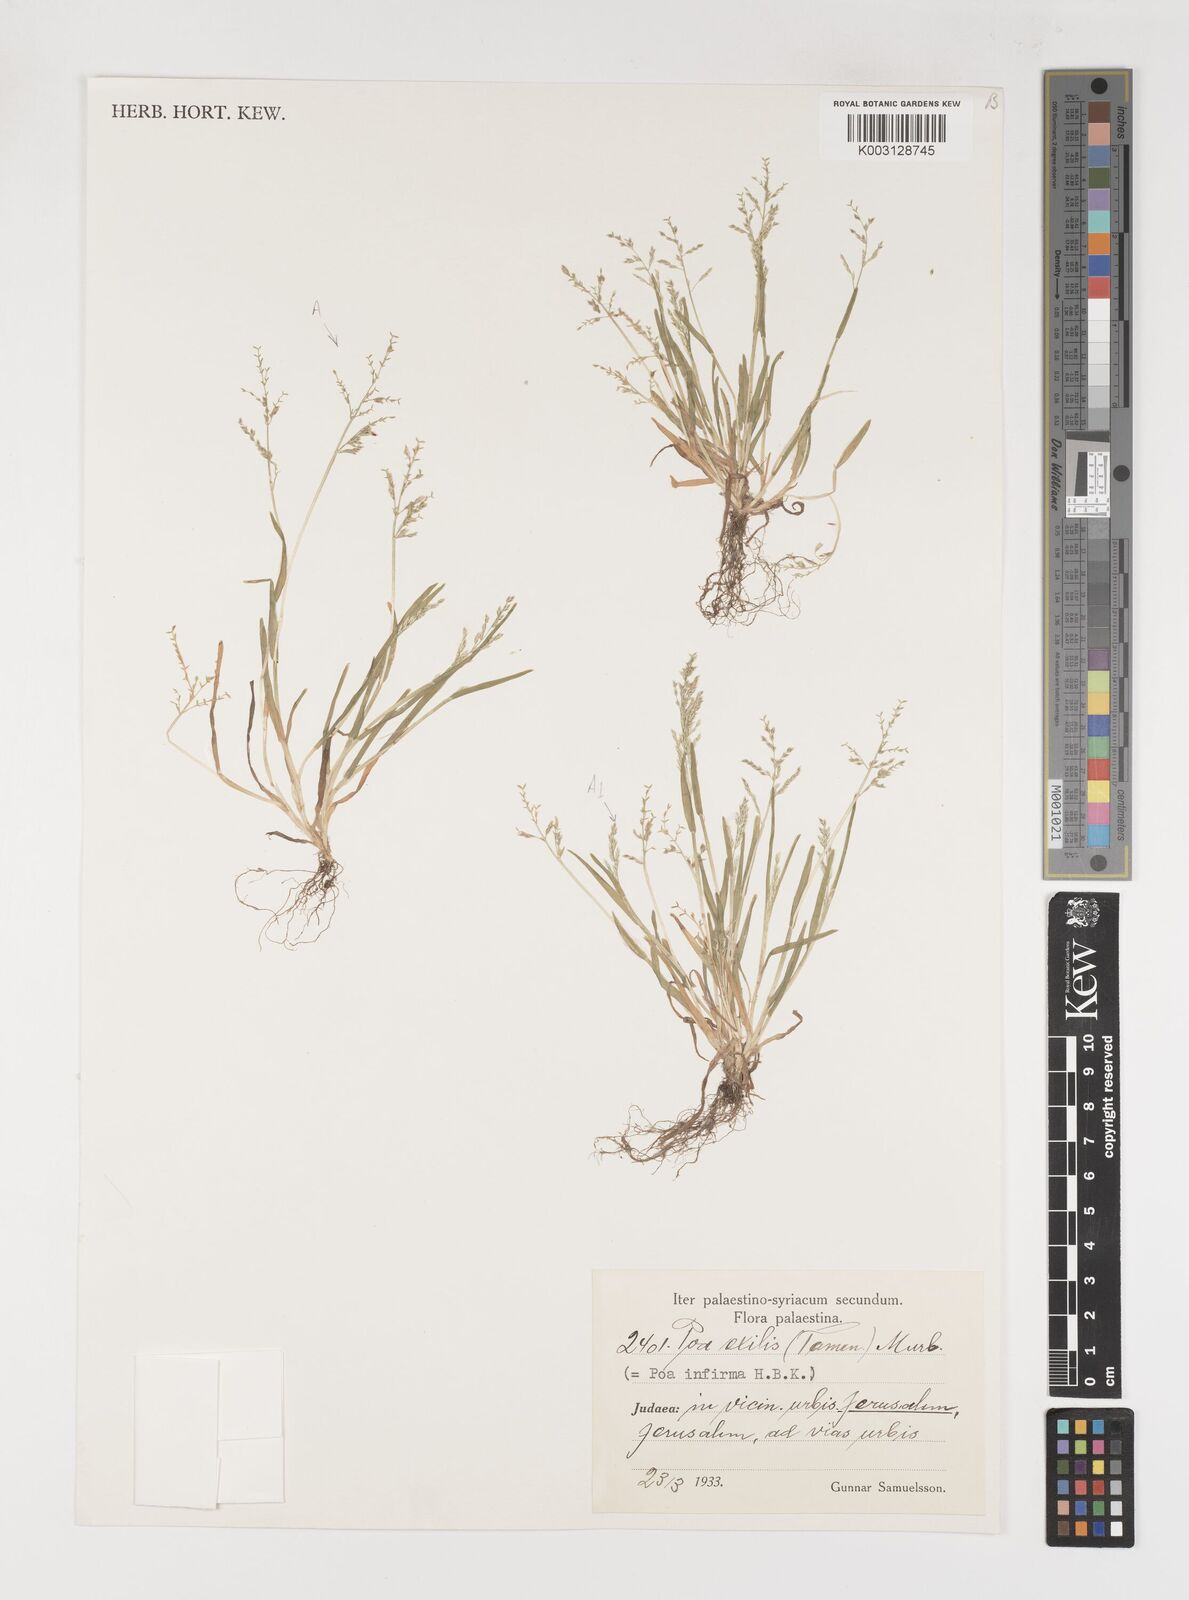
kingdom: Plantae
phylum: Tracheophyta
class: Liliopsida
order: Poales
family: Poaceae
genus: Poa
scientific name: Poa infirma
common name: Weak bluegrass
